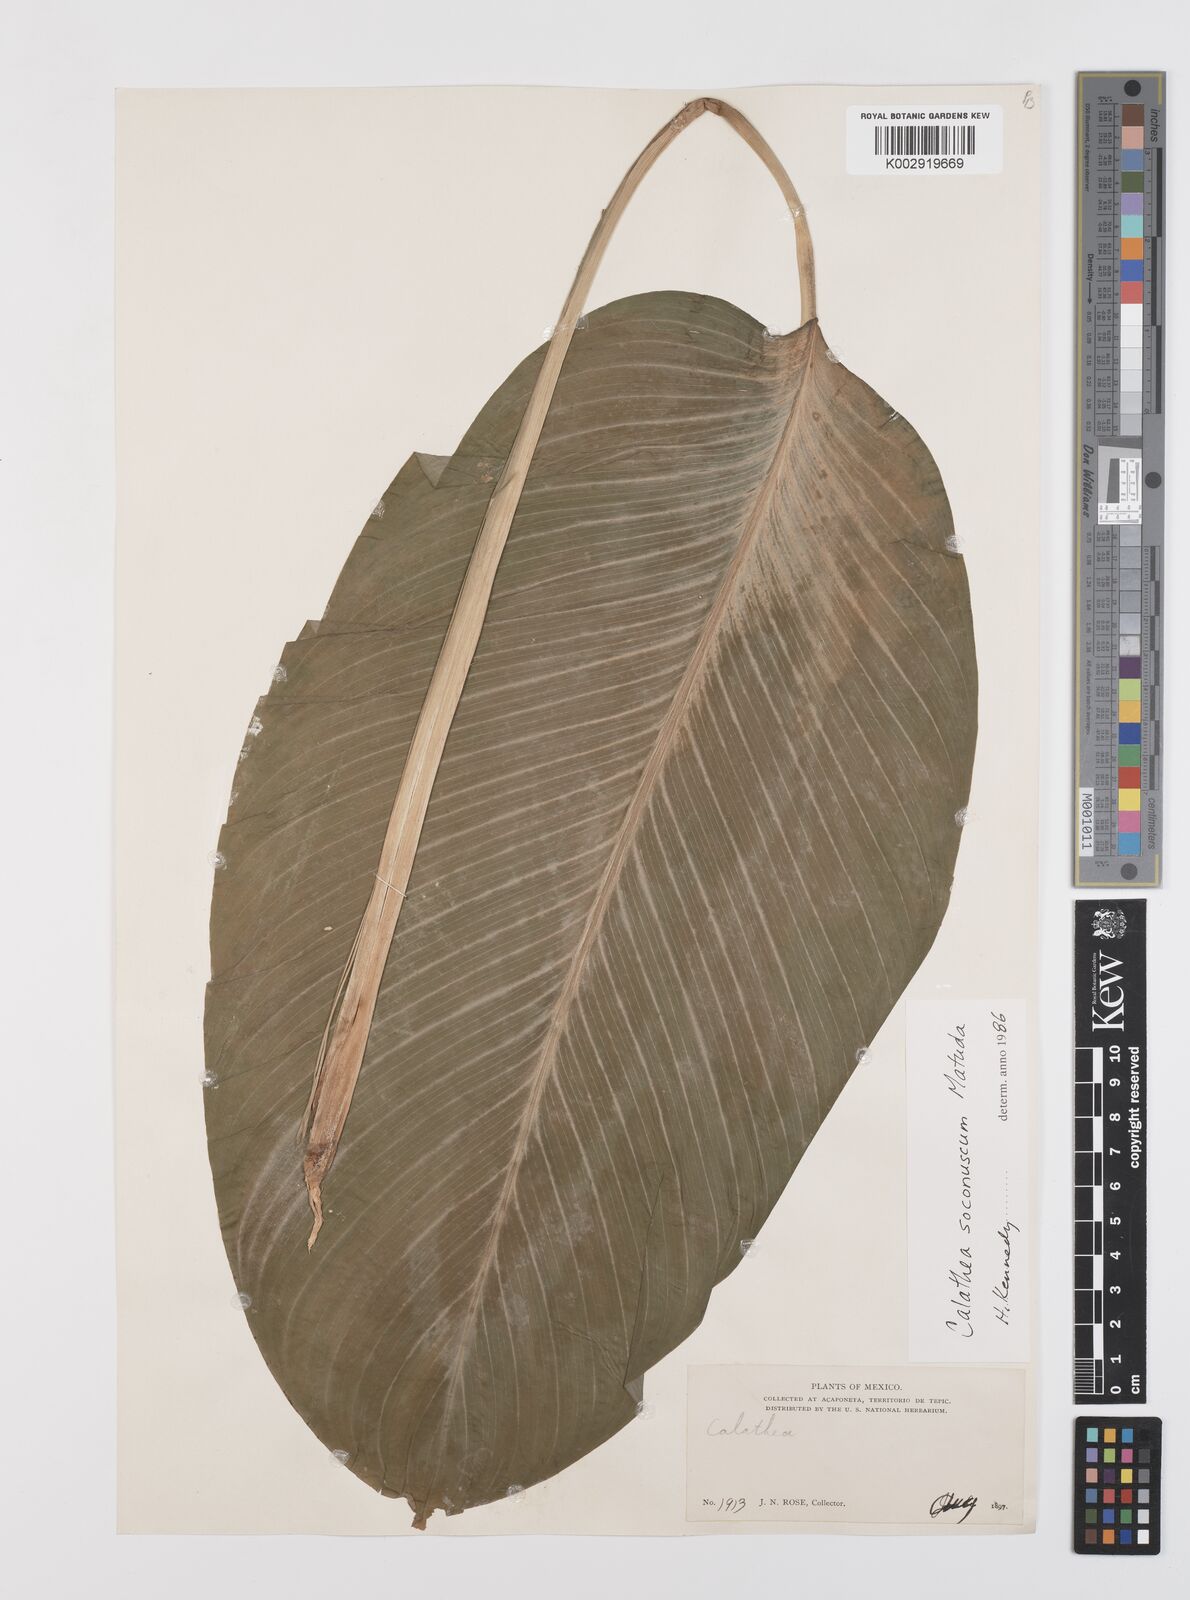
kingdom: Plantae
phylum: Tracheophyta
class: Liliopsida
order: Zingiberales
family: Marantaceae
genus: Goeppertia
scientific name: Goeppertia soconuscum
